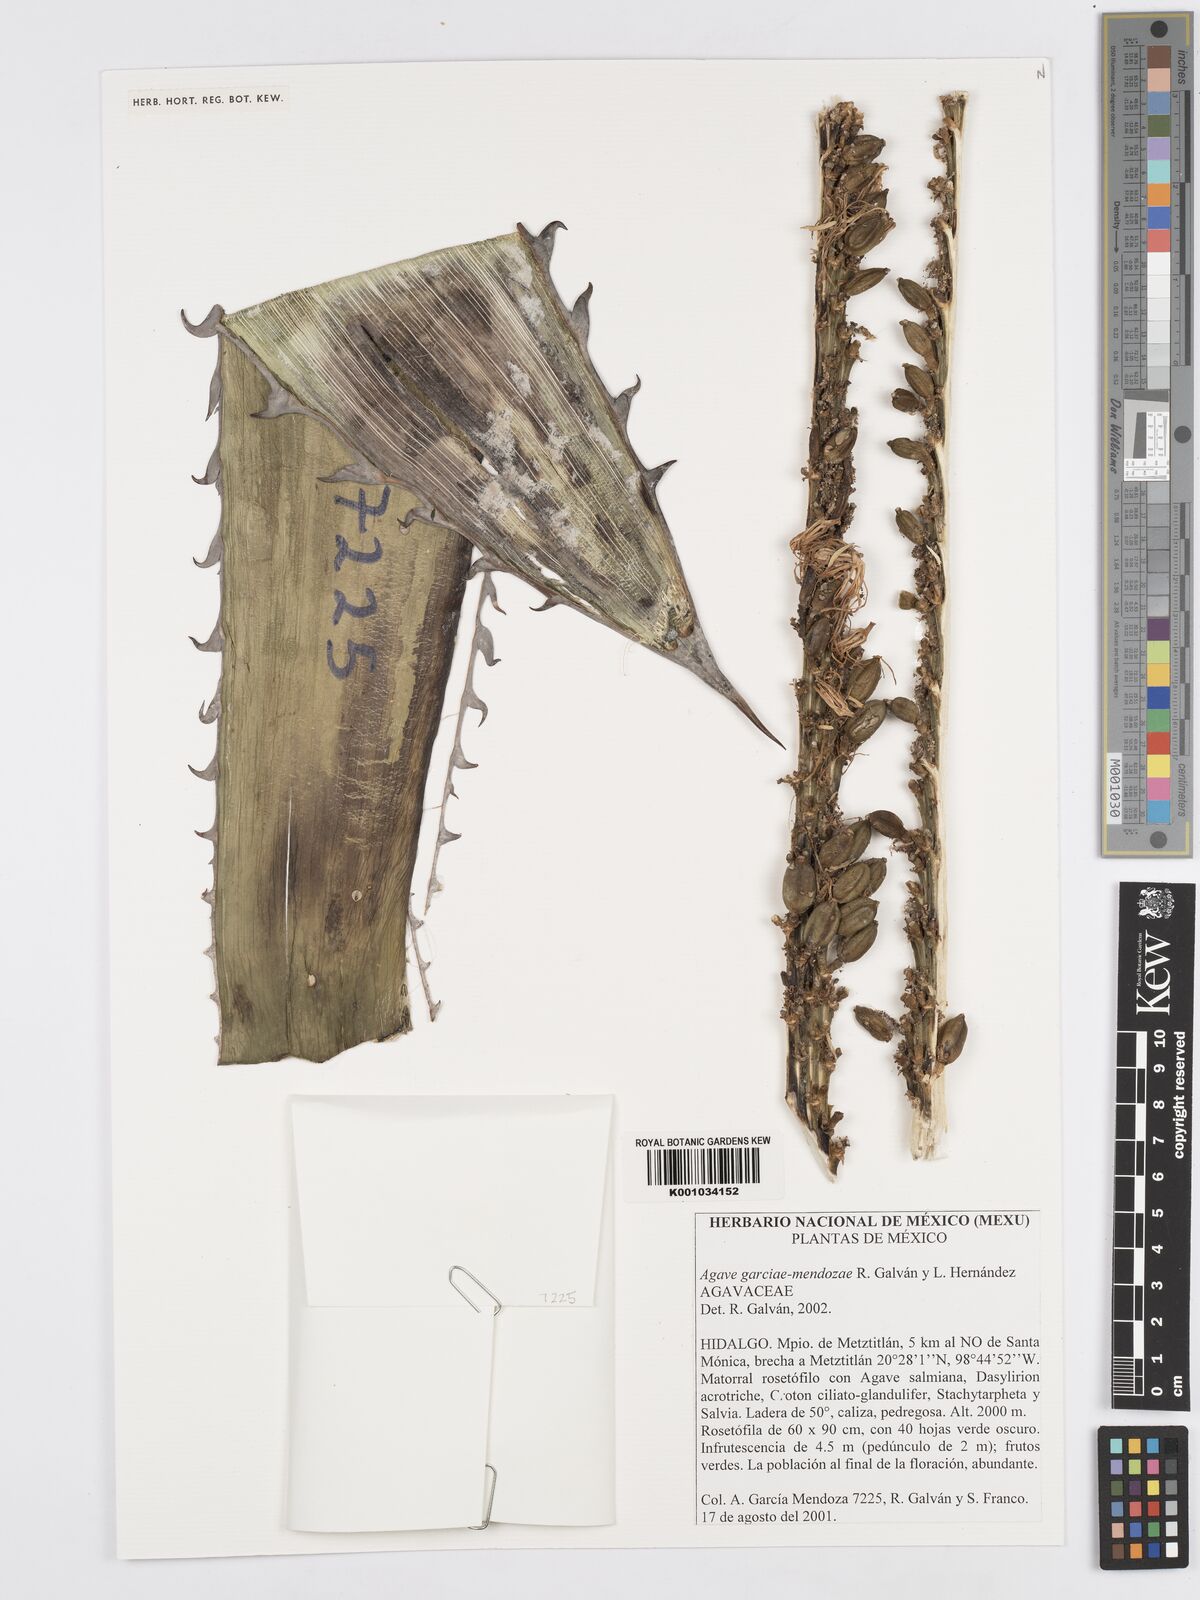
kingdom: Plantae
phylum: Tracheophyta
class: Liliopsida
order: Asparagales
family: Asparagaceae
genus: Agave
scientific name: Agave garciae-mendozae
